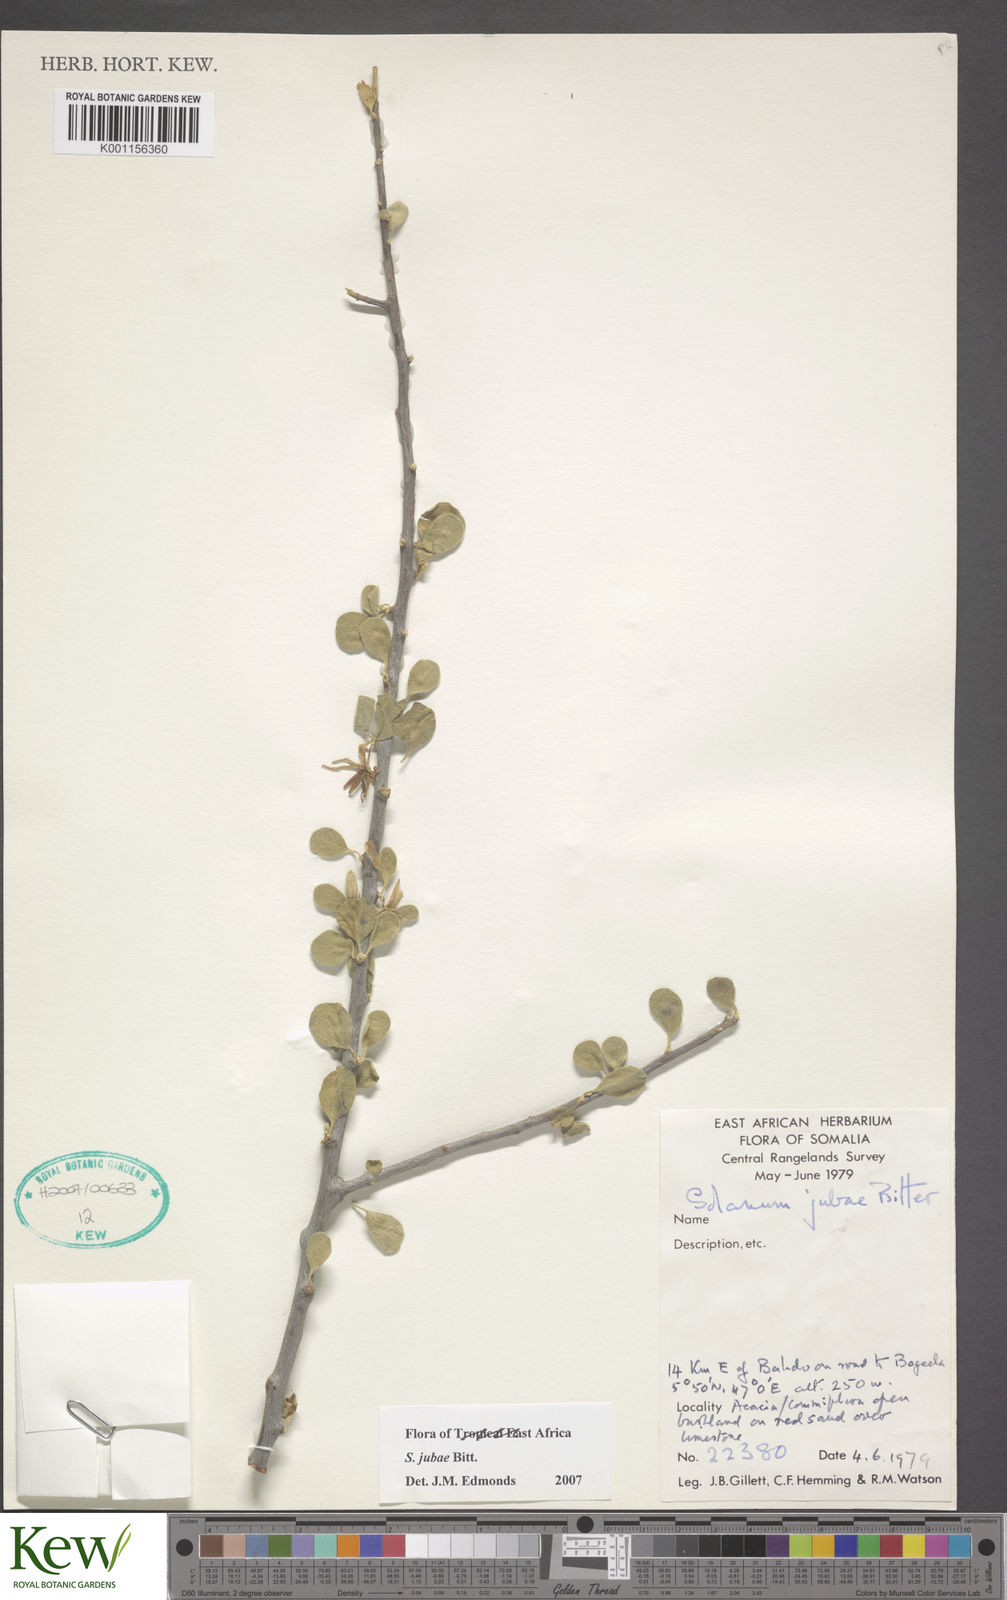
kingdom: Plantae
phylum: Tracheophyta
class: Magnoliopsida
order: Solanales
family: Solanaceae
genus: Solanum
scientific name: Solanum jubae
